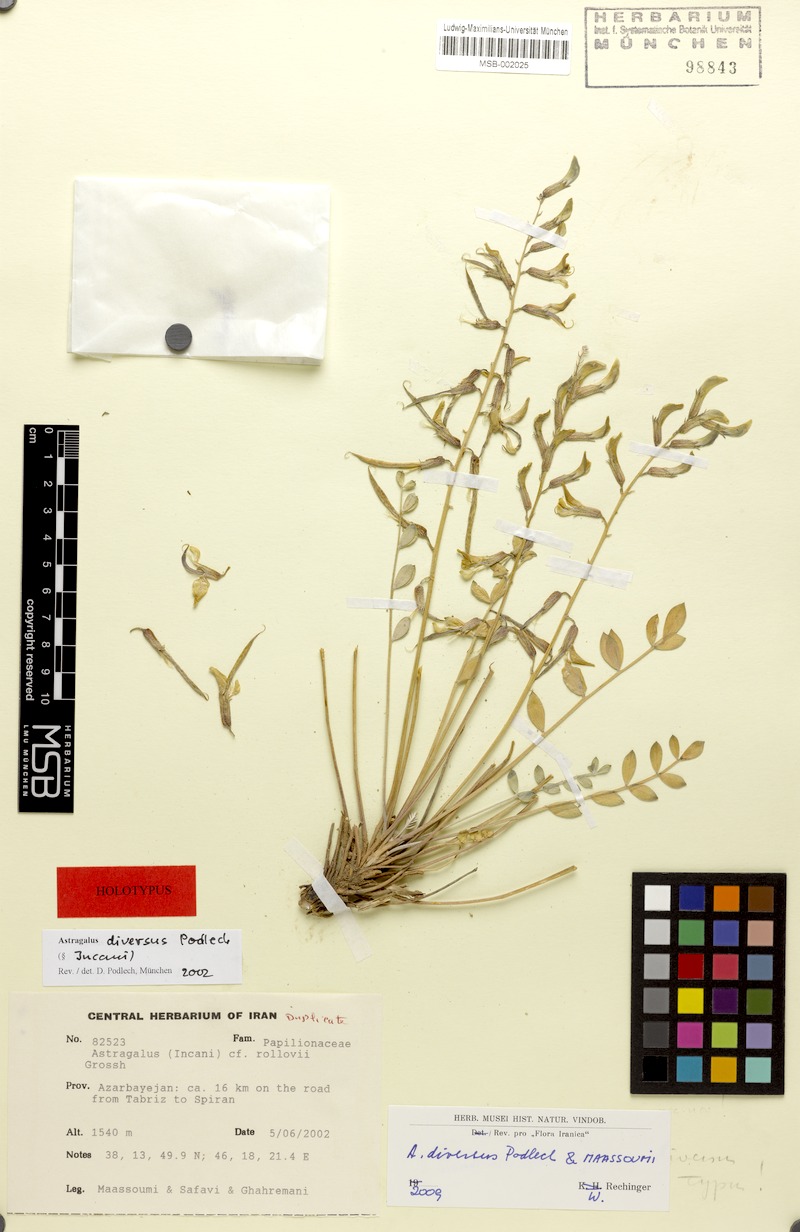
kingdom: Plantae
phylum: Tracheophyta
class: Magnoliopsida
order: Fabales
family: Fabaceae
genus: Astragalus
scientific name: Astragalus diversus
